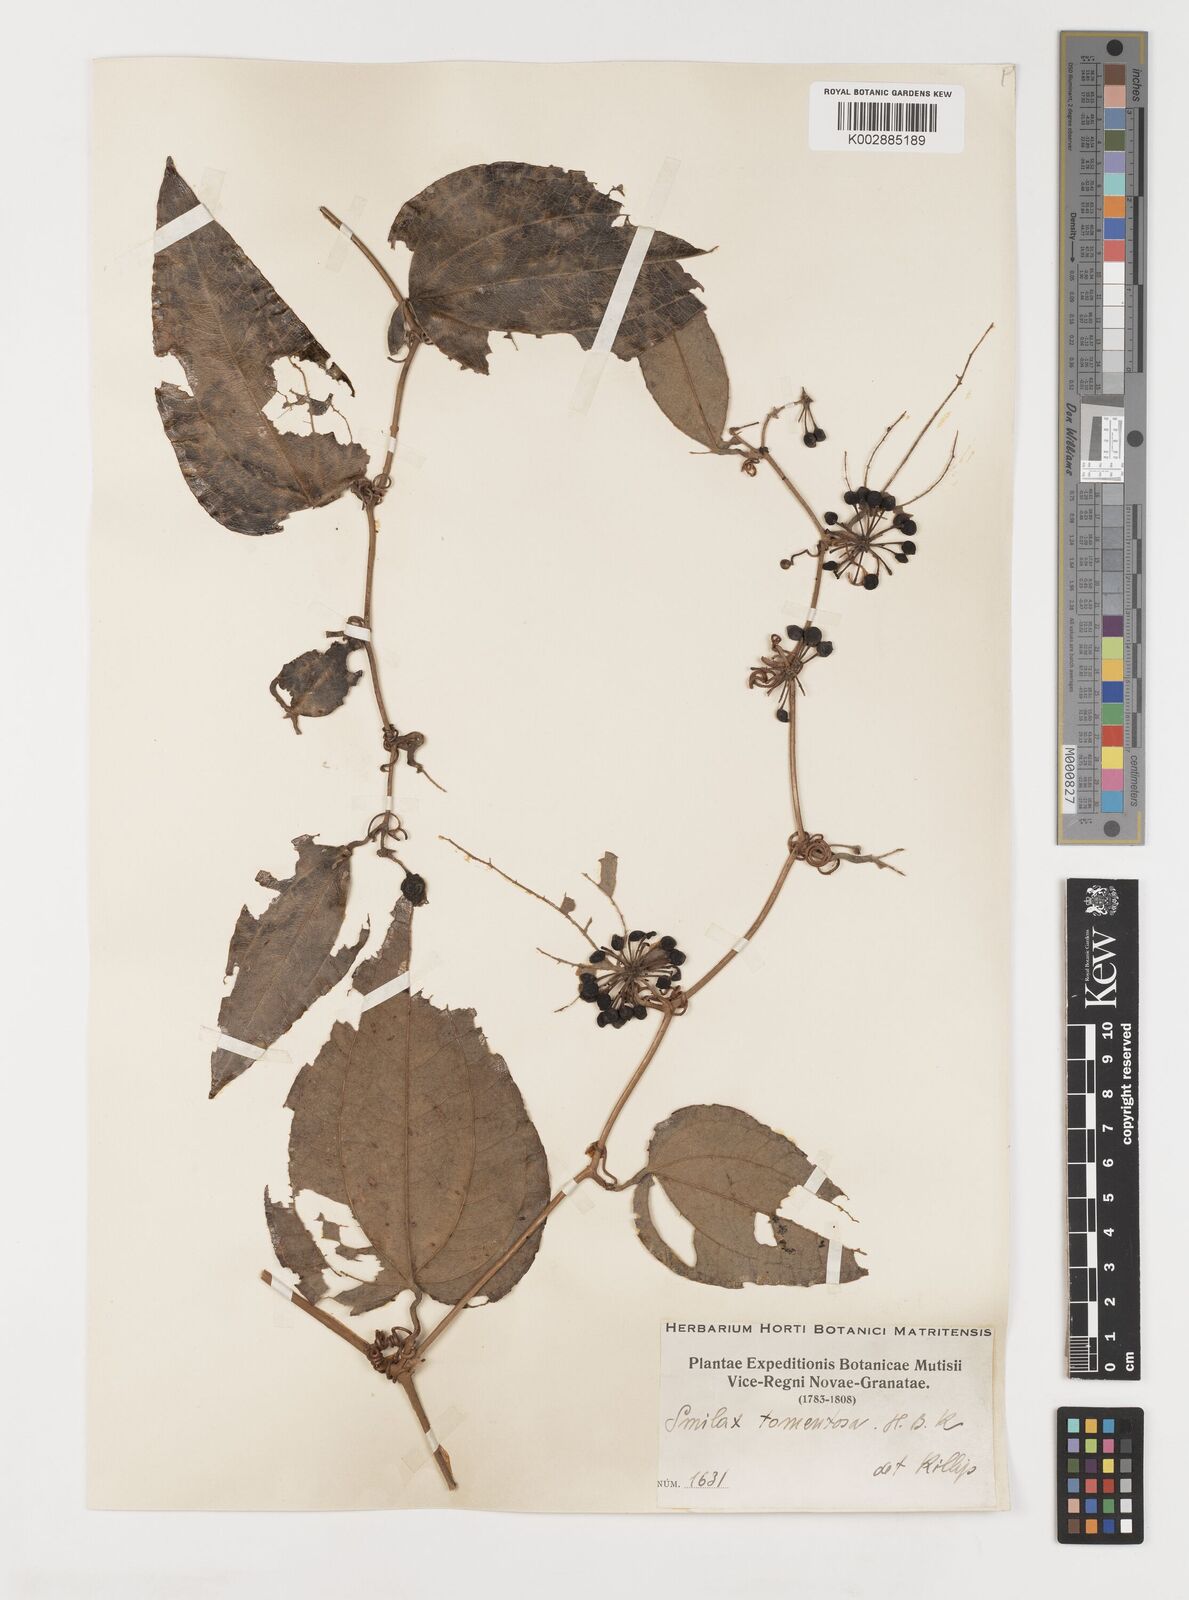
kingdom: Plantae
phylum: Tracheophyta
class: Liliopsida
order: Liliales
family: Smilacaceae
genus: Smilax
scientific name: Smilax tomentosa
